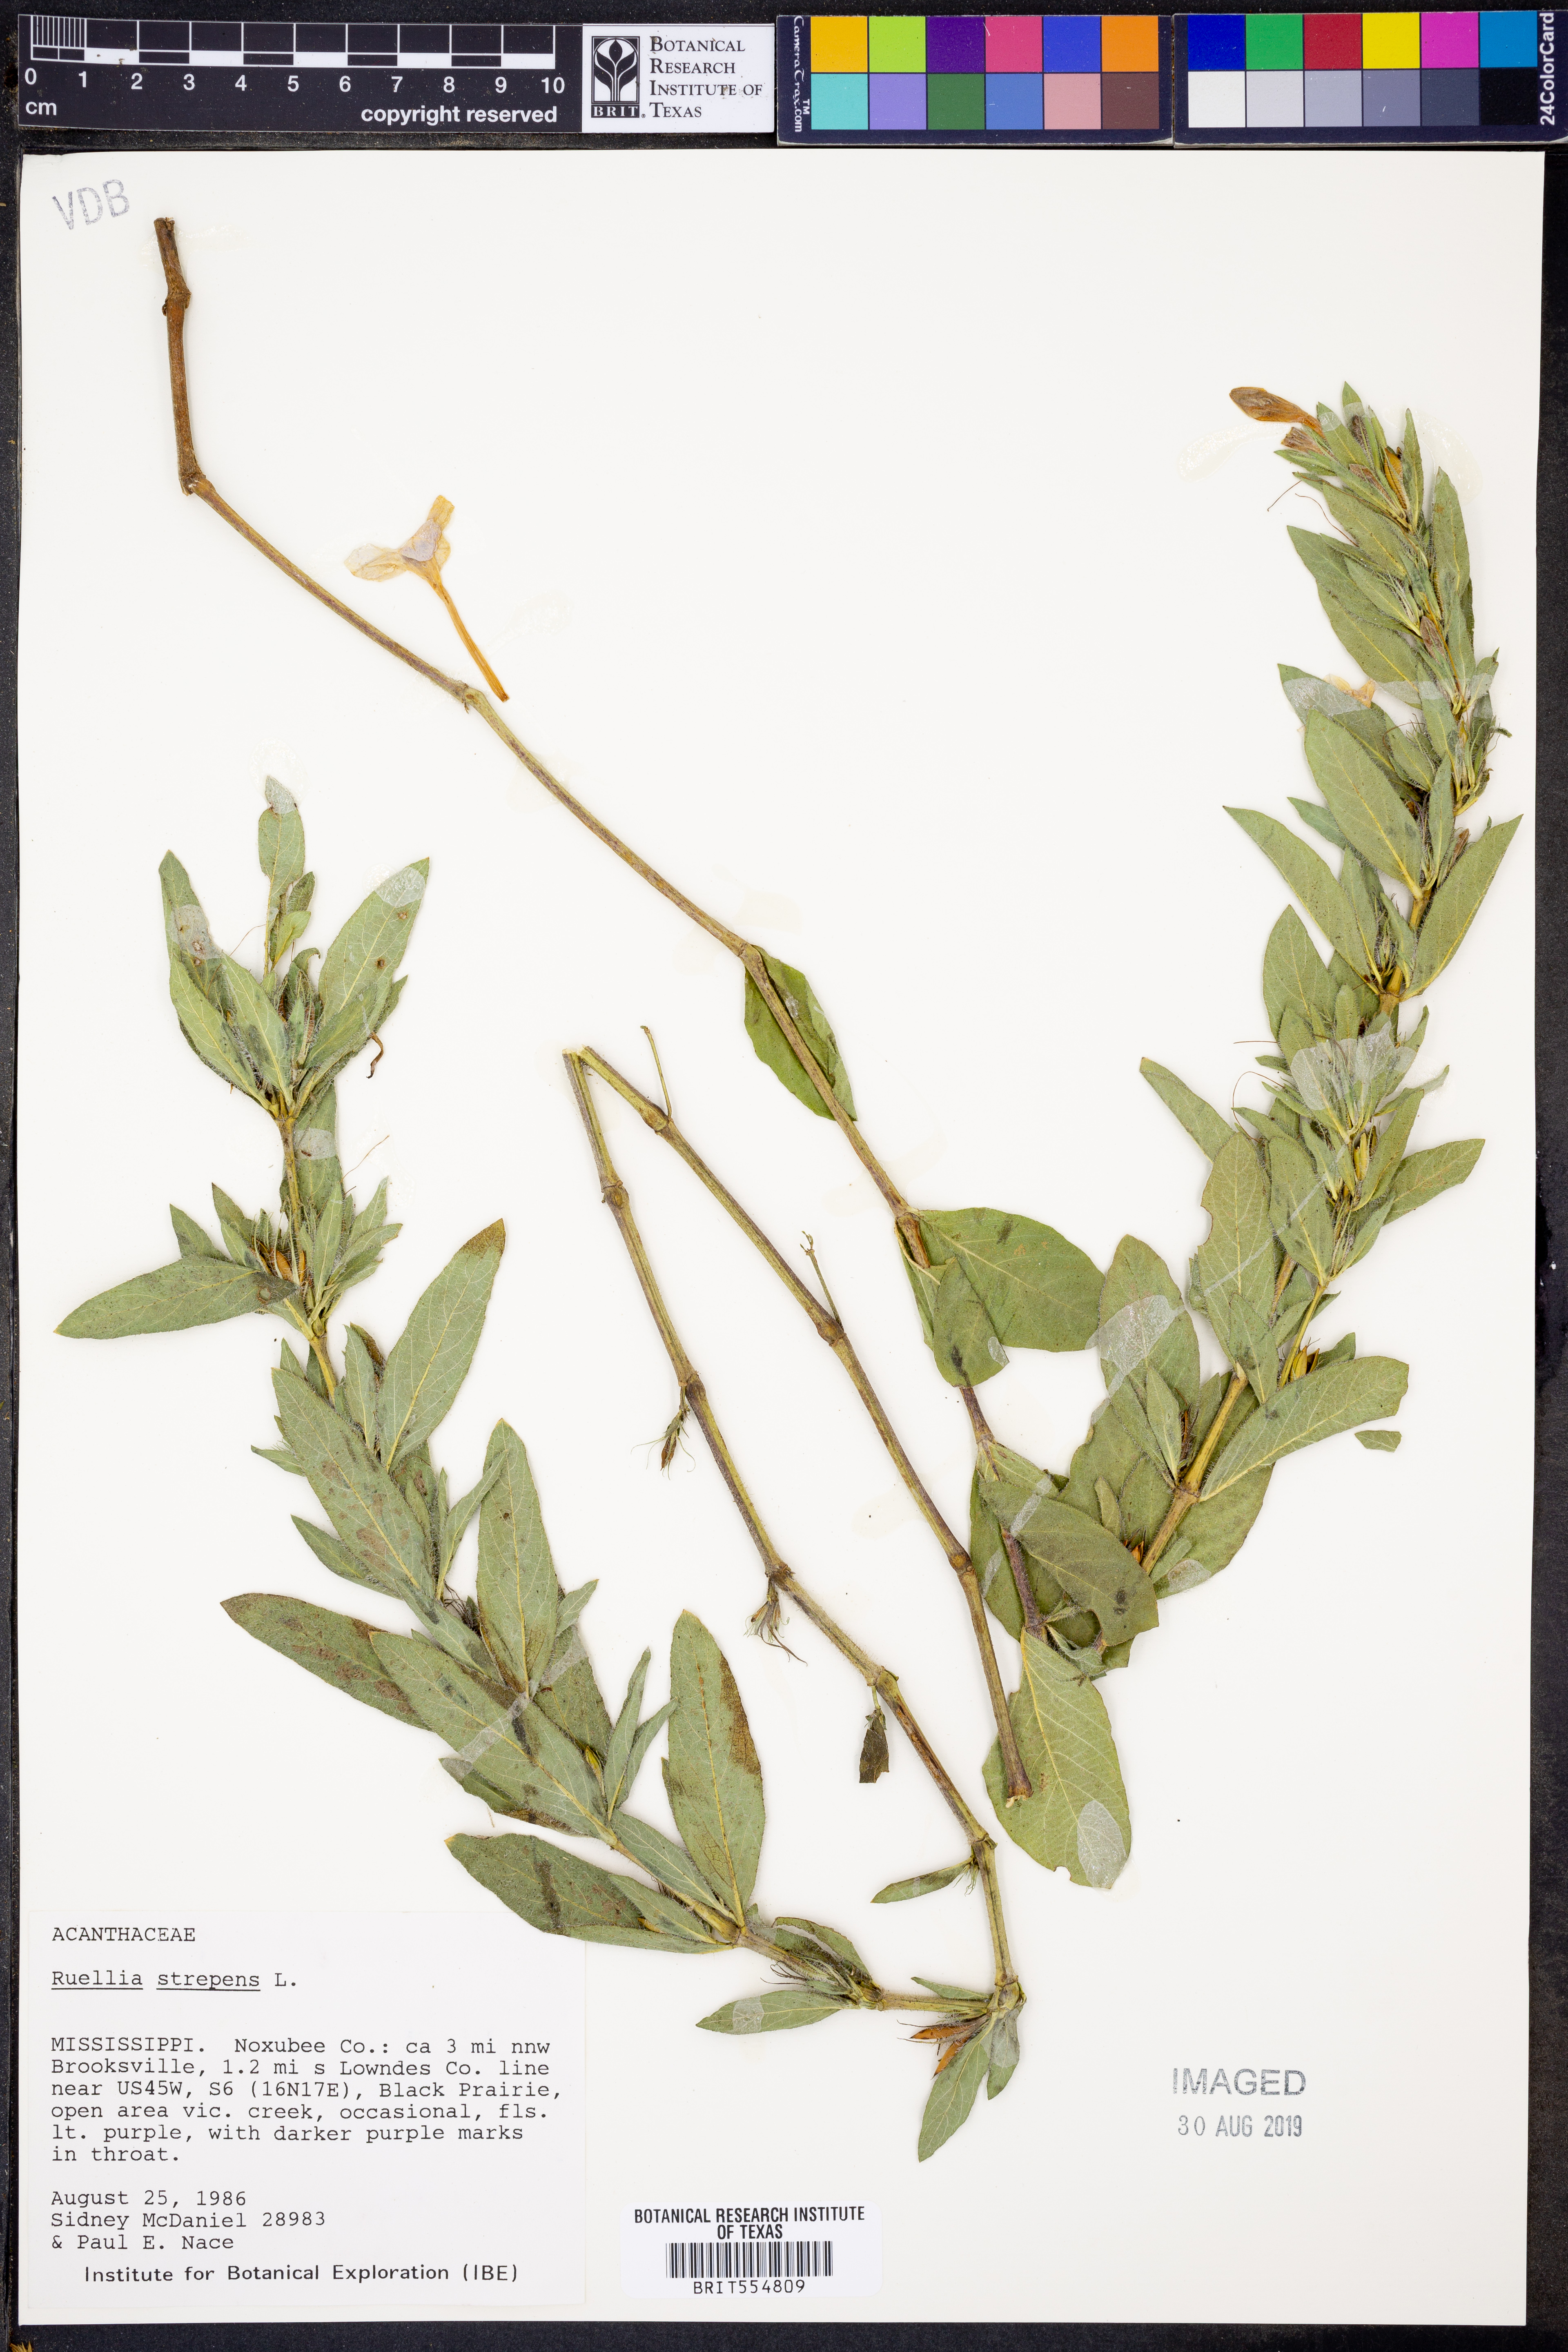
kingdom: Plantae
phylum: Tracheophyta
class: Magnoliopsida
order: Lamiales
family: Acanthaceae
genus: Ruellia
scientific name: Ruellia strepens
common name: Limestone wild petunia
